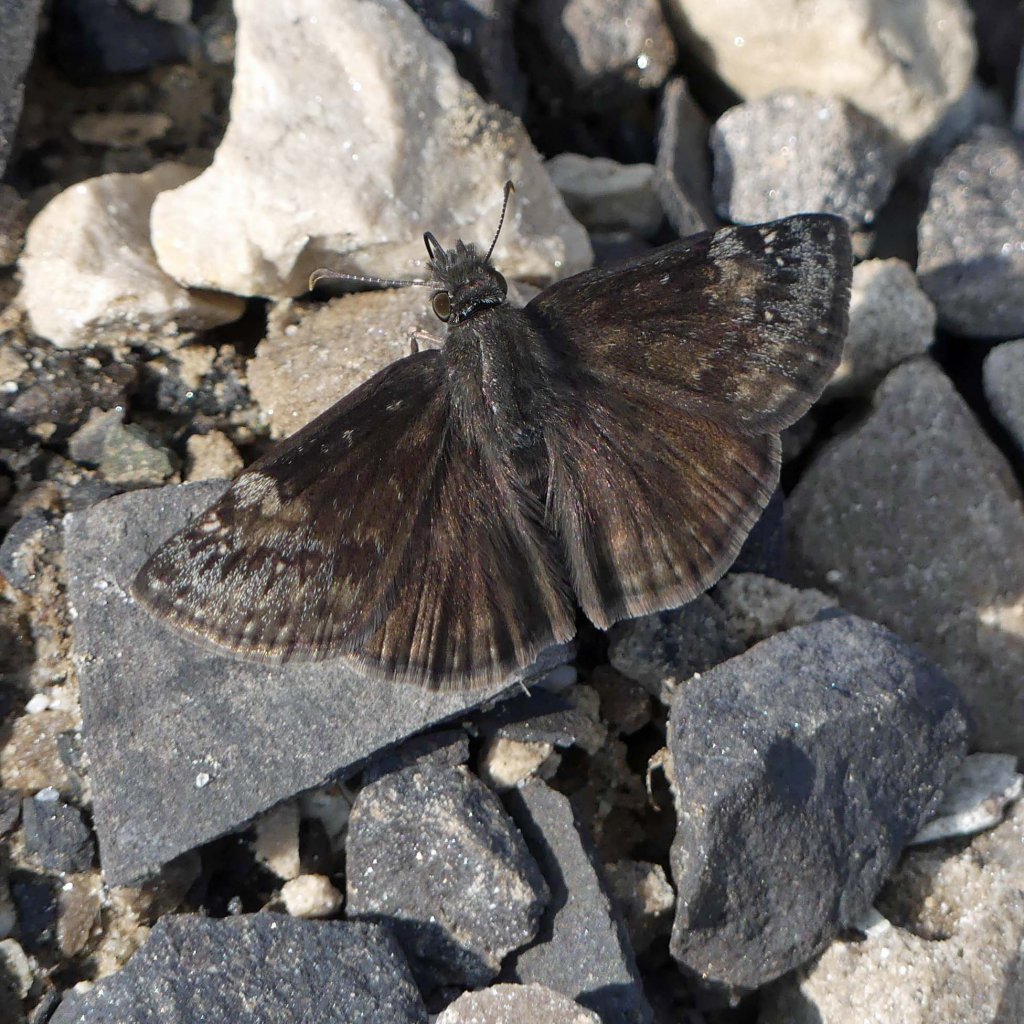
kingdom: Animalia
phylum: Arthropoda
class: Insecta
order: Lepidoptera
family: Hesperiidae
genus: Gesta
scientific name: Gesta
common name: Wild Indigo Duskywing
